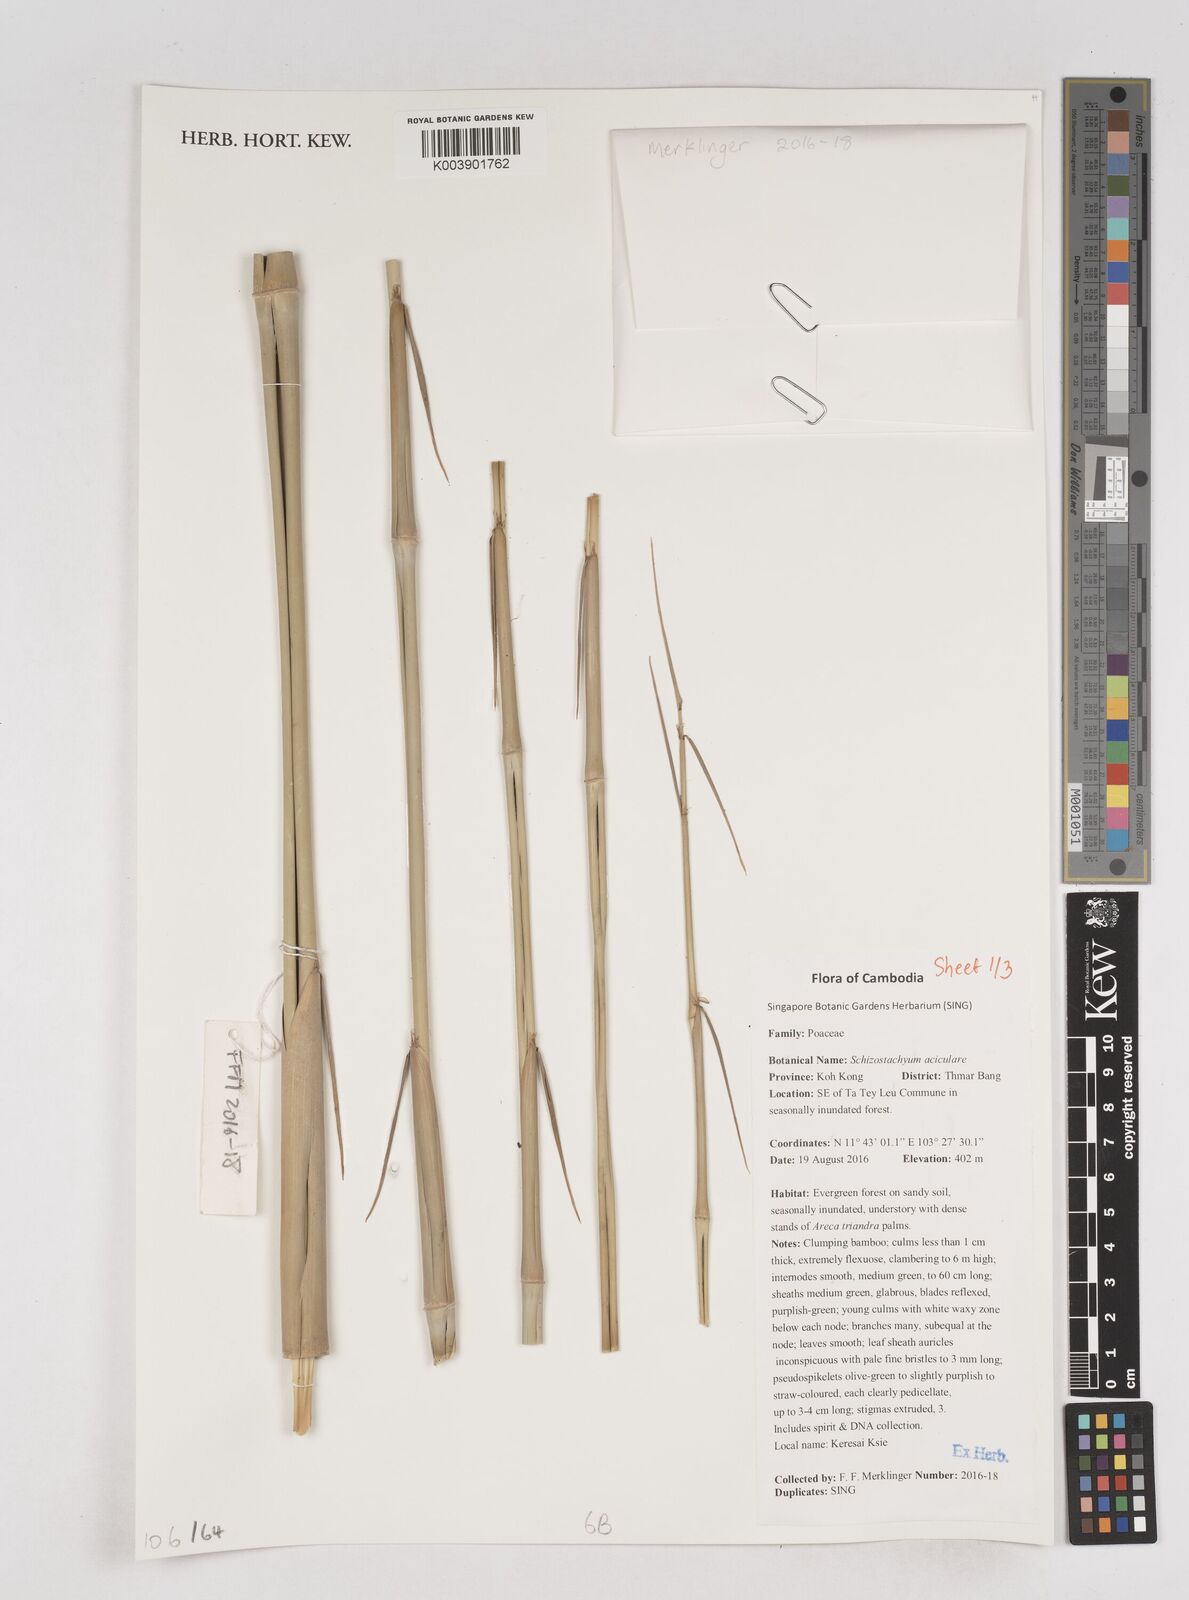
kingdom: Plantae
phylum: Tracheophyta
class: Liliopsida
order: Poales
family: Poaceae
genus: Schizostachyum
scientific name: Schizostachyum aciculare
